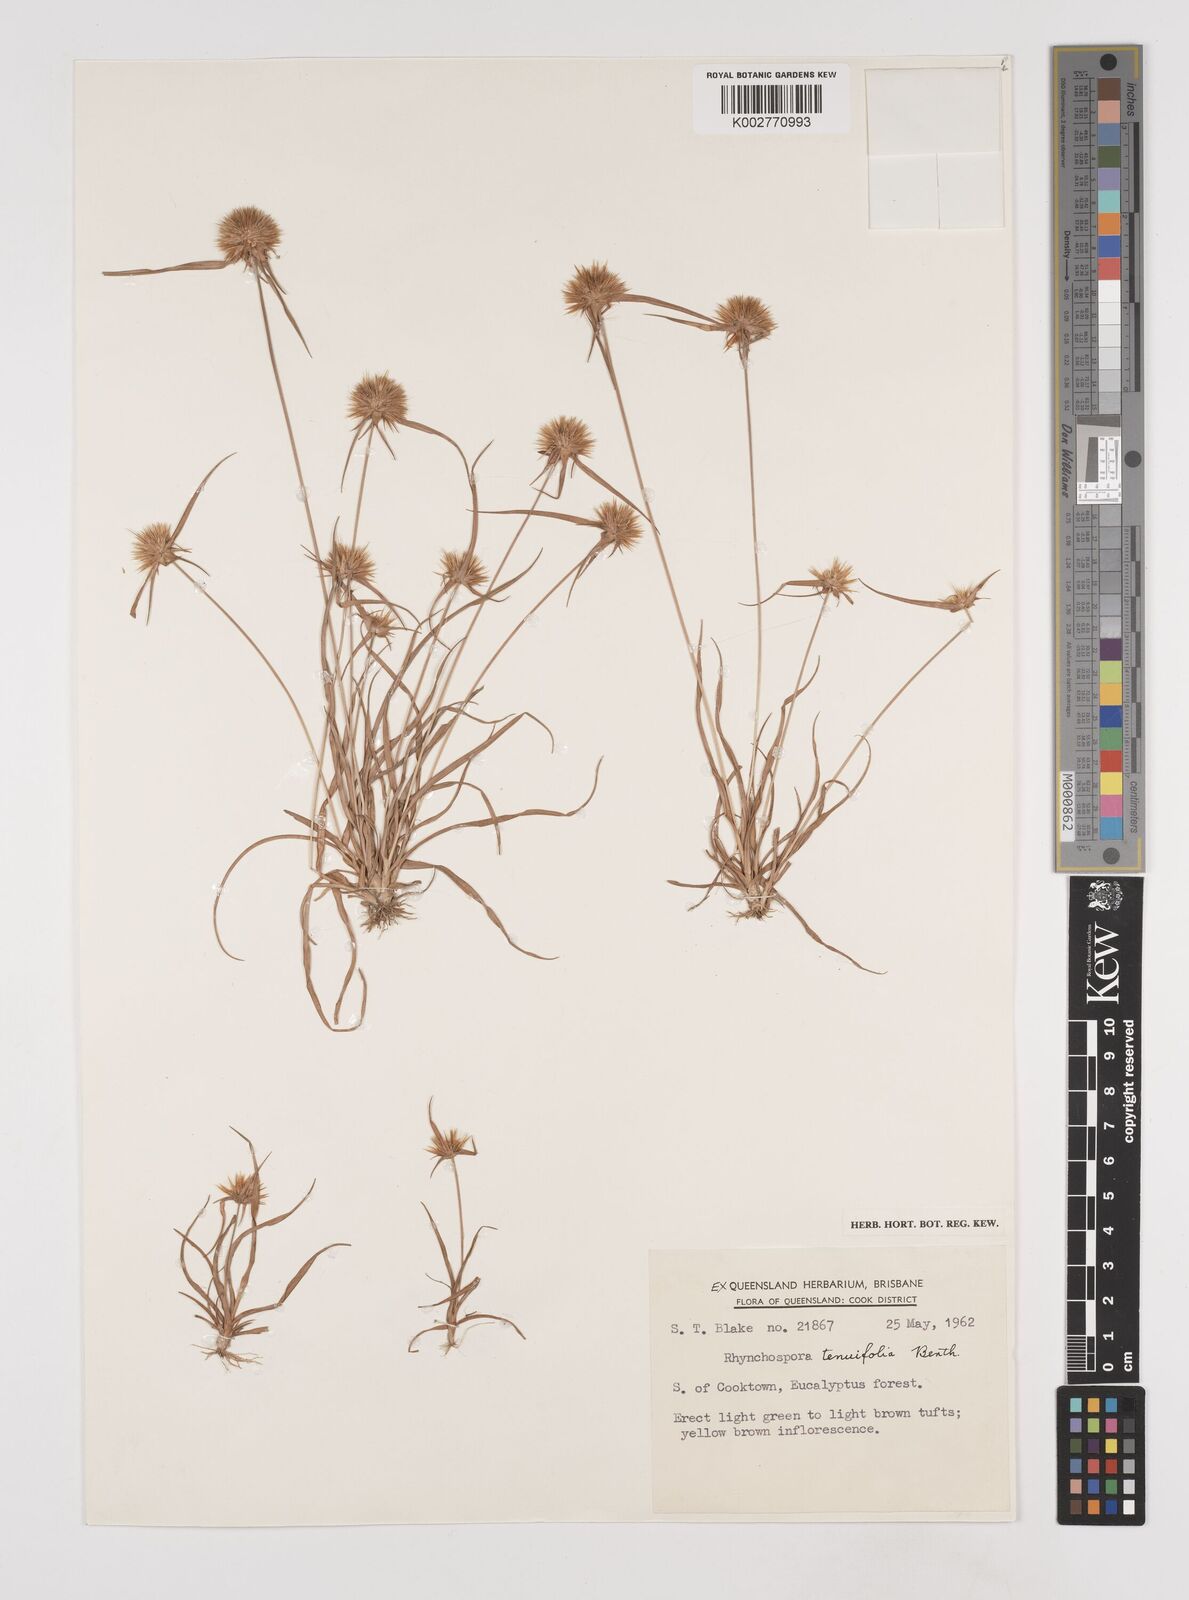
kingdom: Plantae
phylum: Tracheophyta
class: Liliopsida
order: Poales
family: Cyperaceae
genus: Rhynchospora
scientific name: Rhynchospora subtenuifolia
